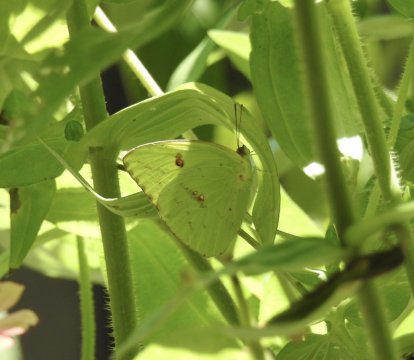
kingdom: Animalia
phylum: Arthropoda
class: Insecta
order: Lepidoptera
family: Pieridae
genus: Phoebis
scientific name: Phoebis sennae
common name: Cloudless Sulphur
